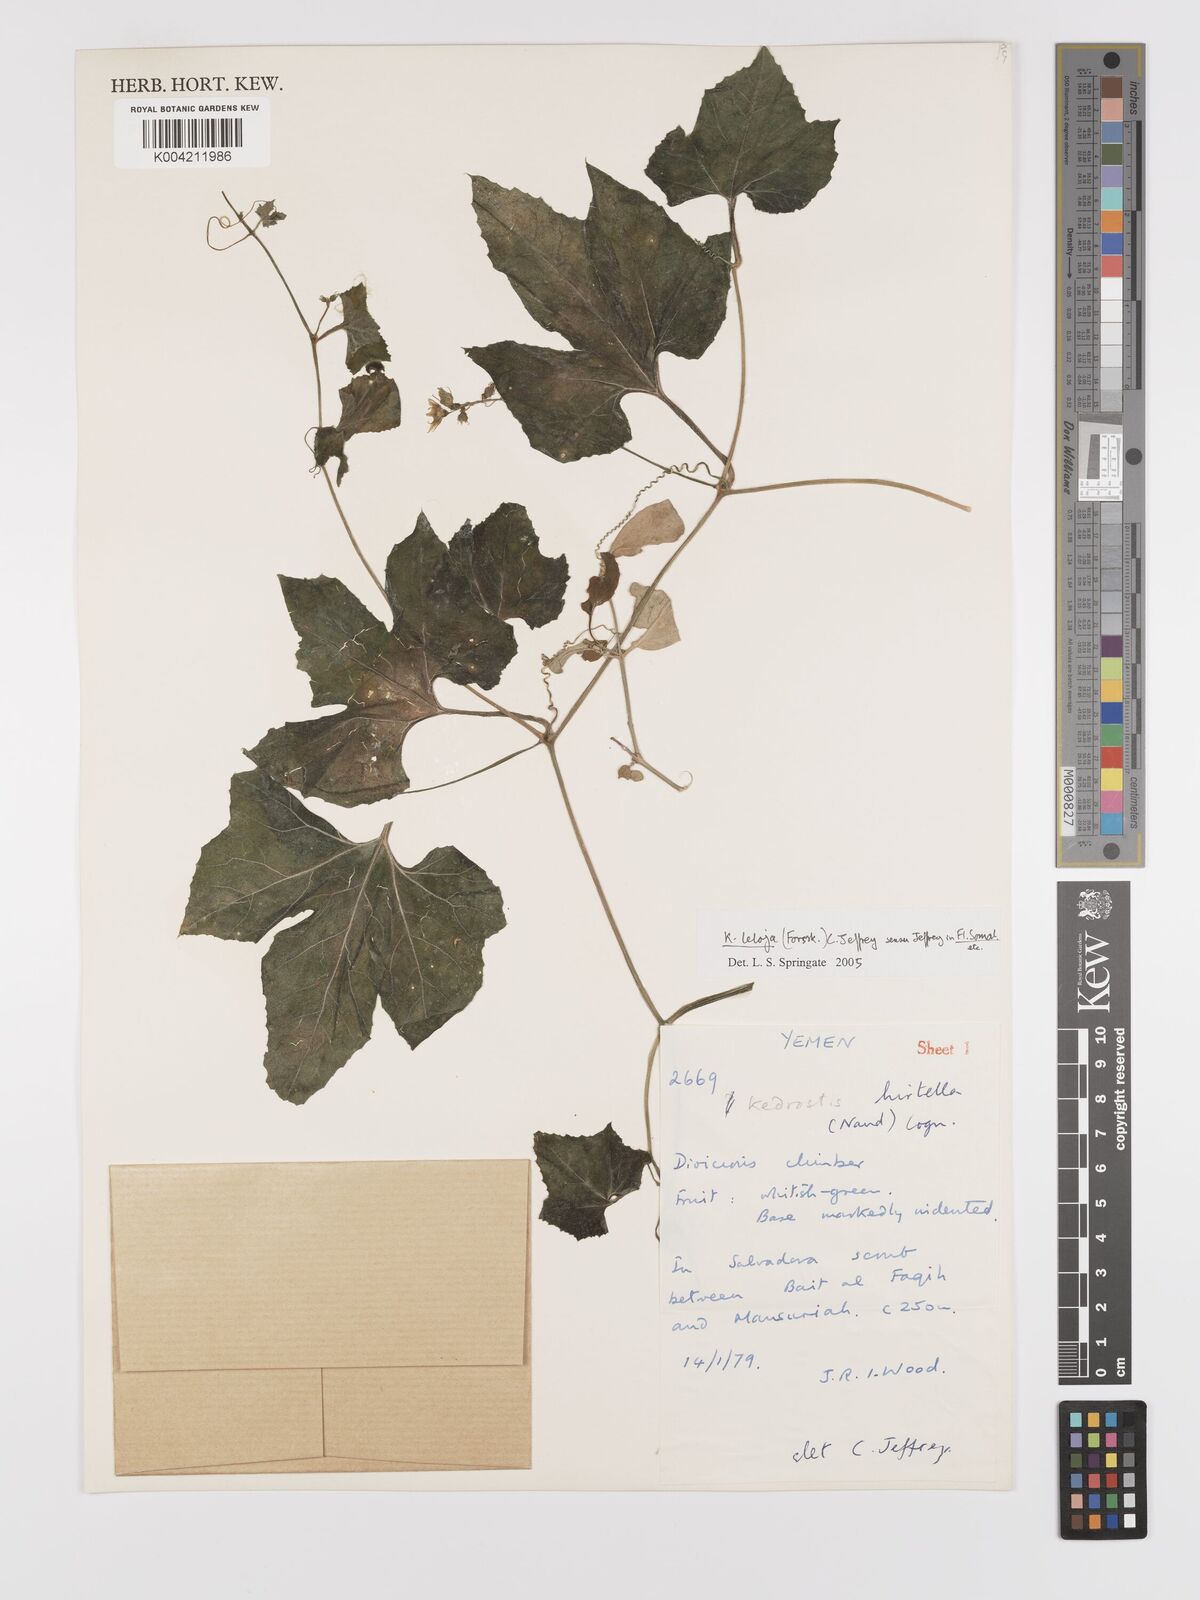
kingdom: Plantae
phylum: Tracheophyta
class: Magnoliopsida
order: Cucurbitales
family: Cucurbitaceae
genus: Kedrostis
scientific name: Kedrostis leloja
